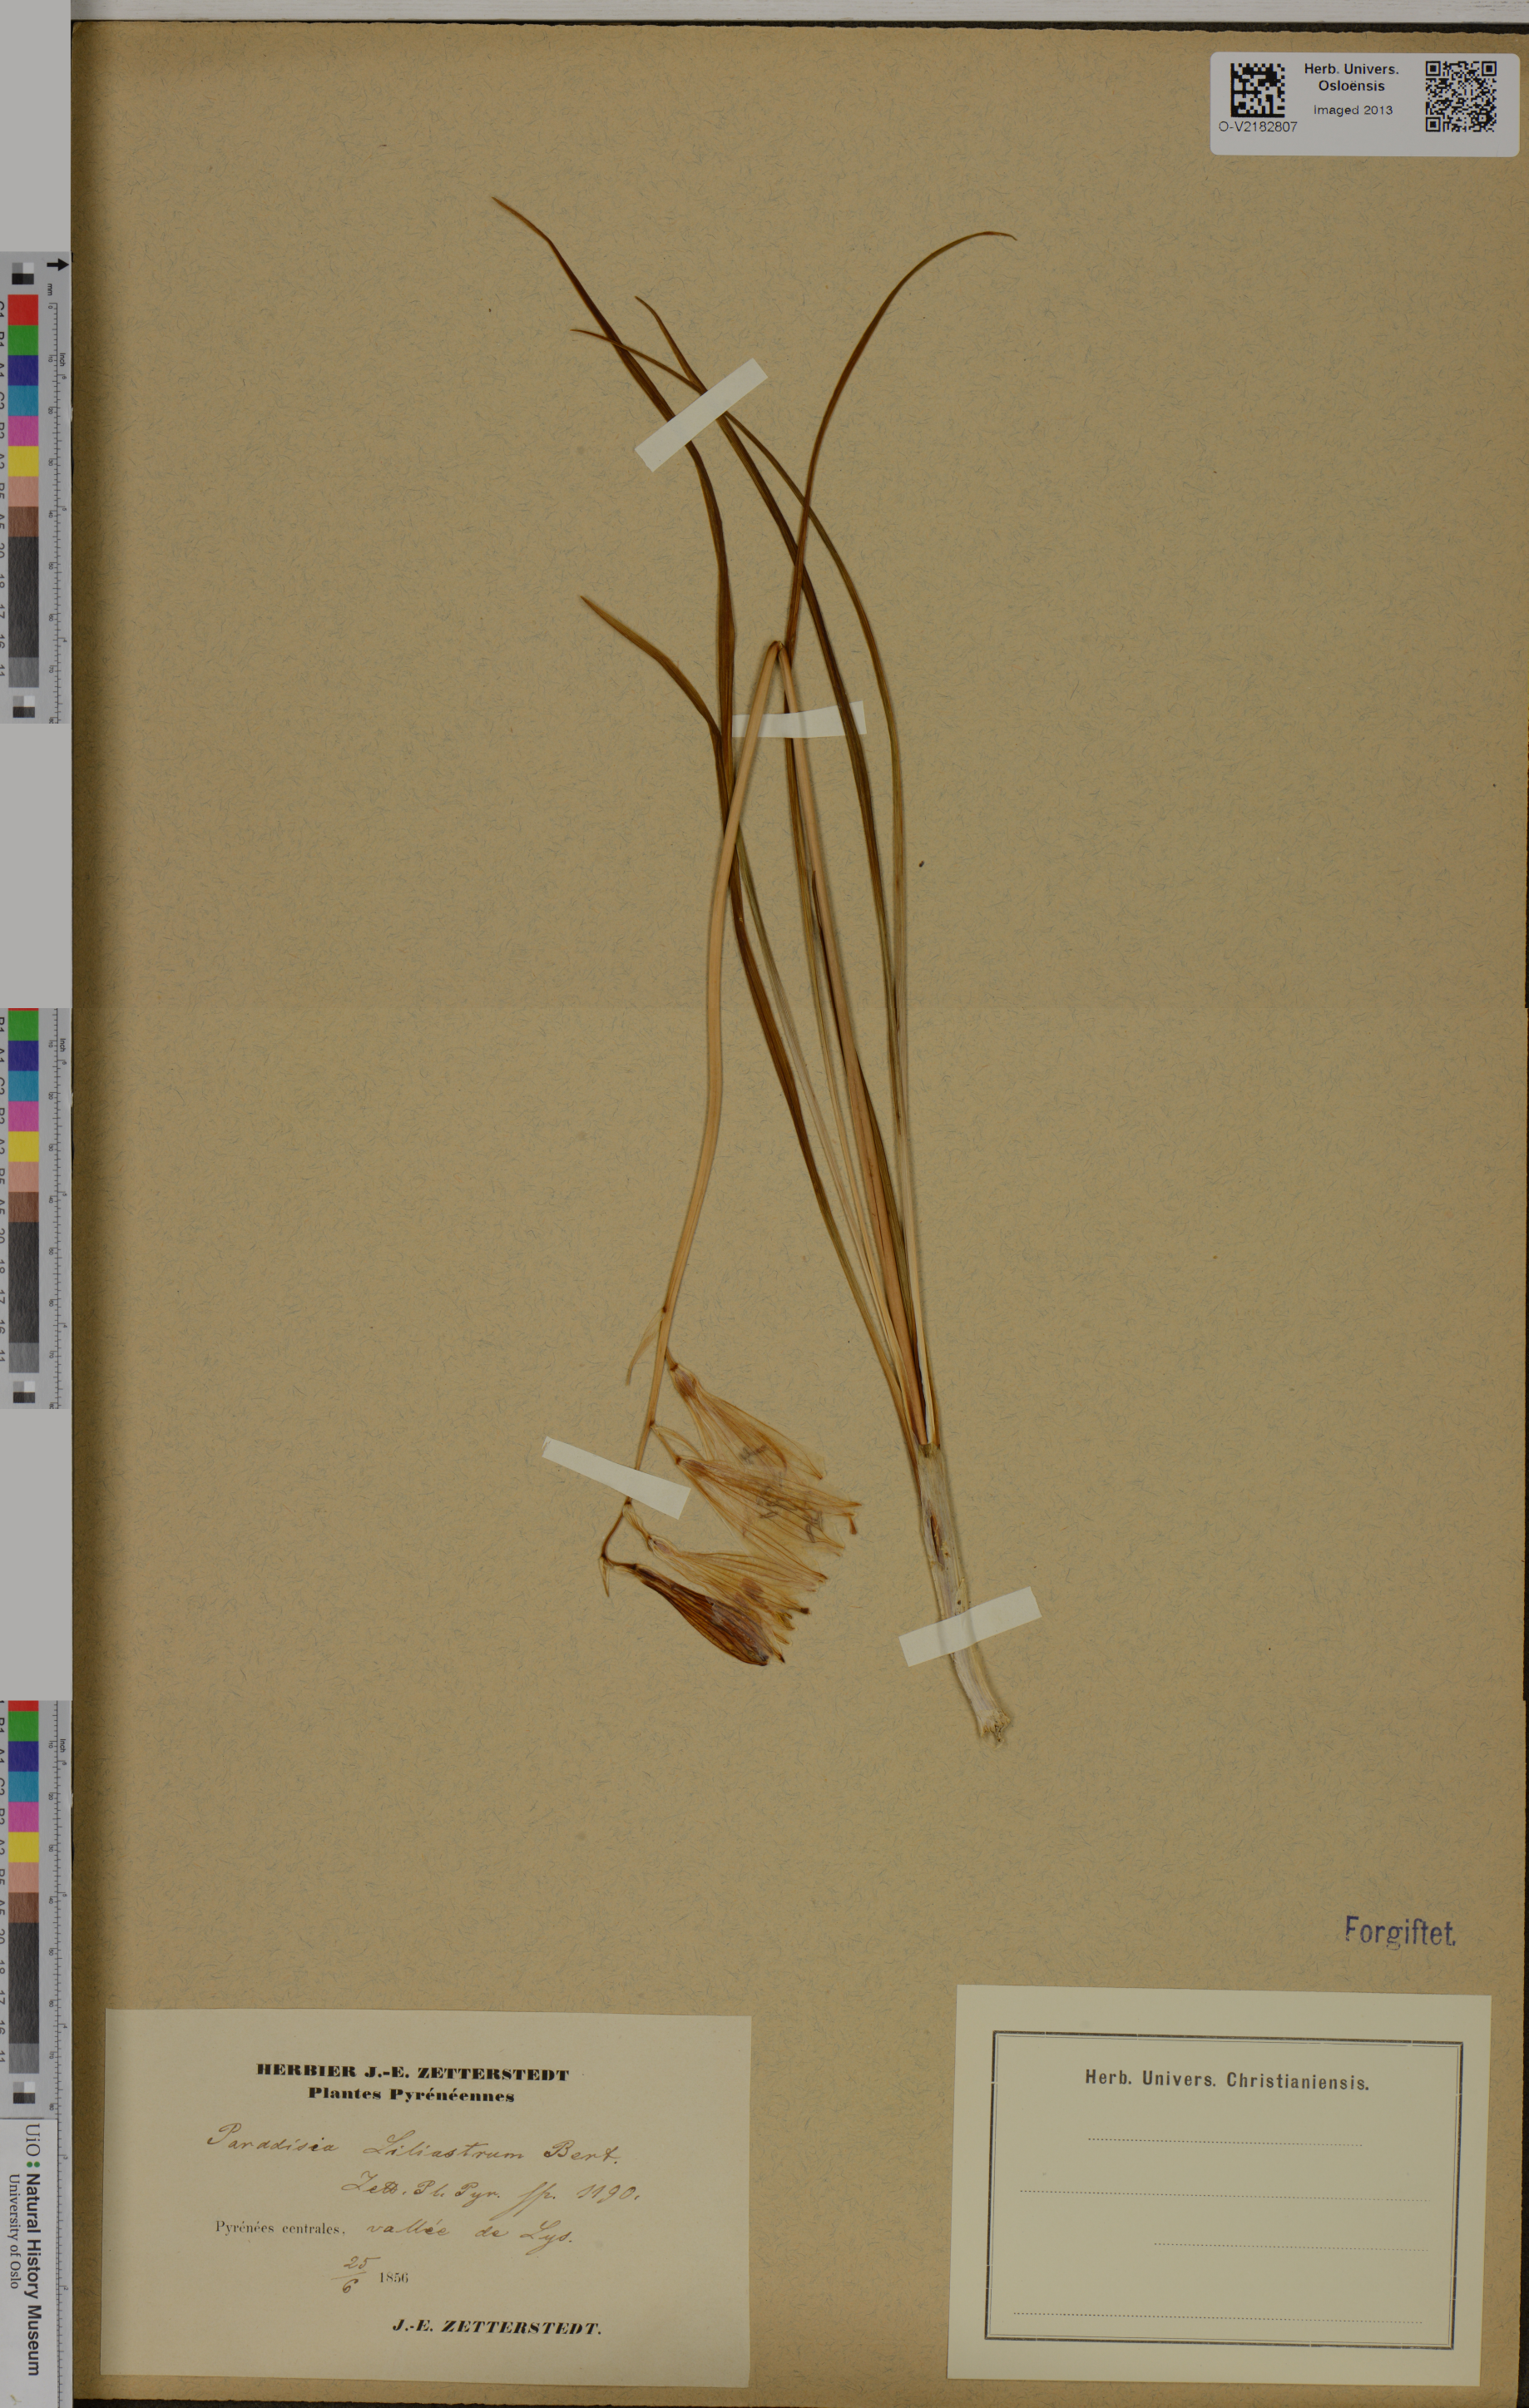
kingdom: Plantae
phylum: Tracheophyta
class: Liliopsida
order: Asparagales
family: Asparagaceae
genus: Paradisea
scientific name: Paradisea liliastrum
